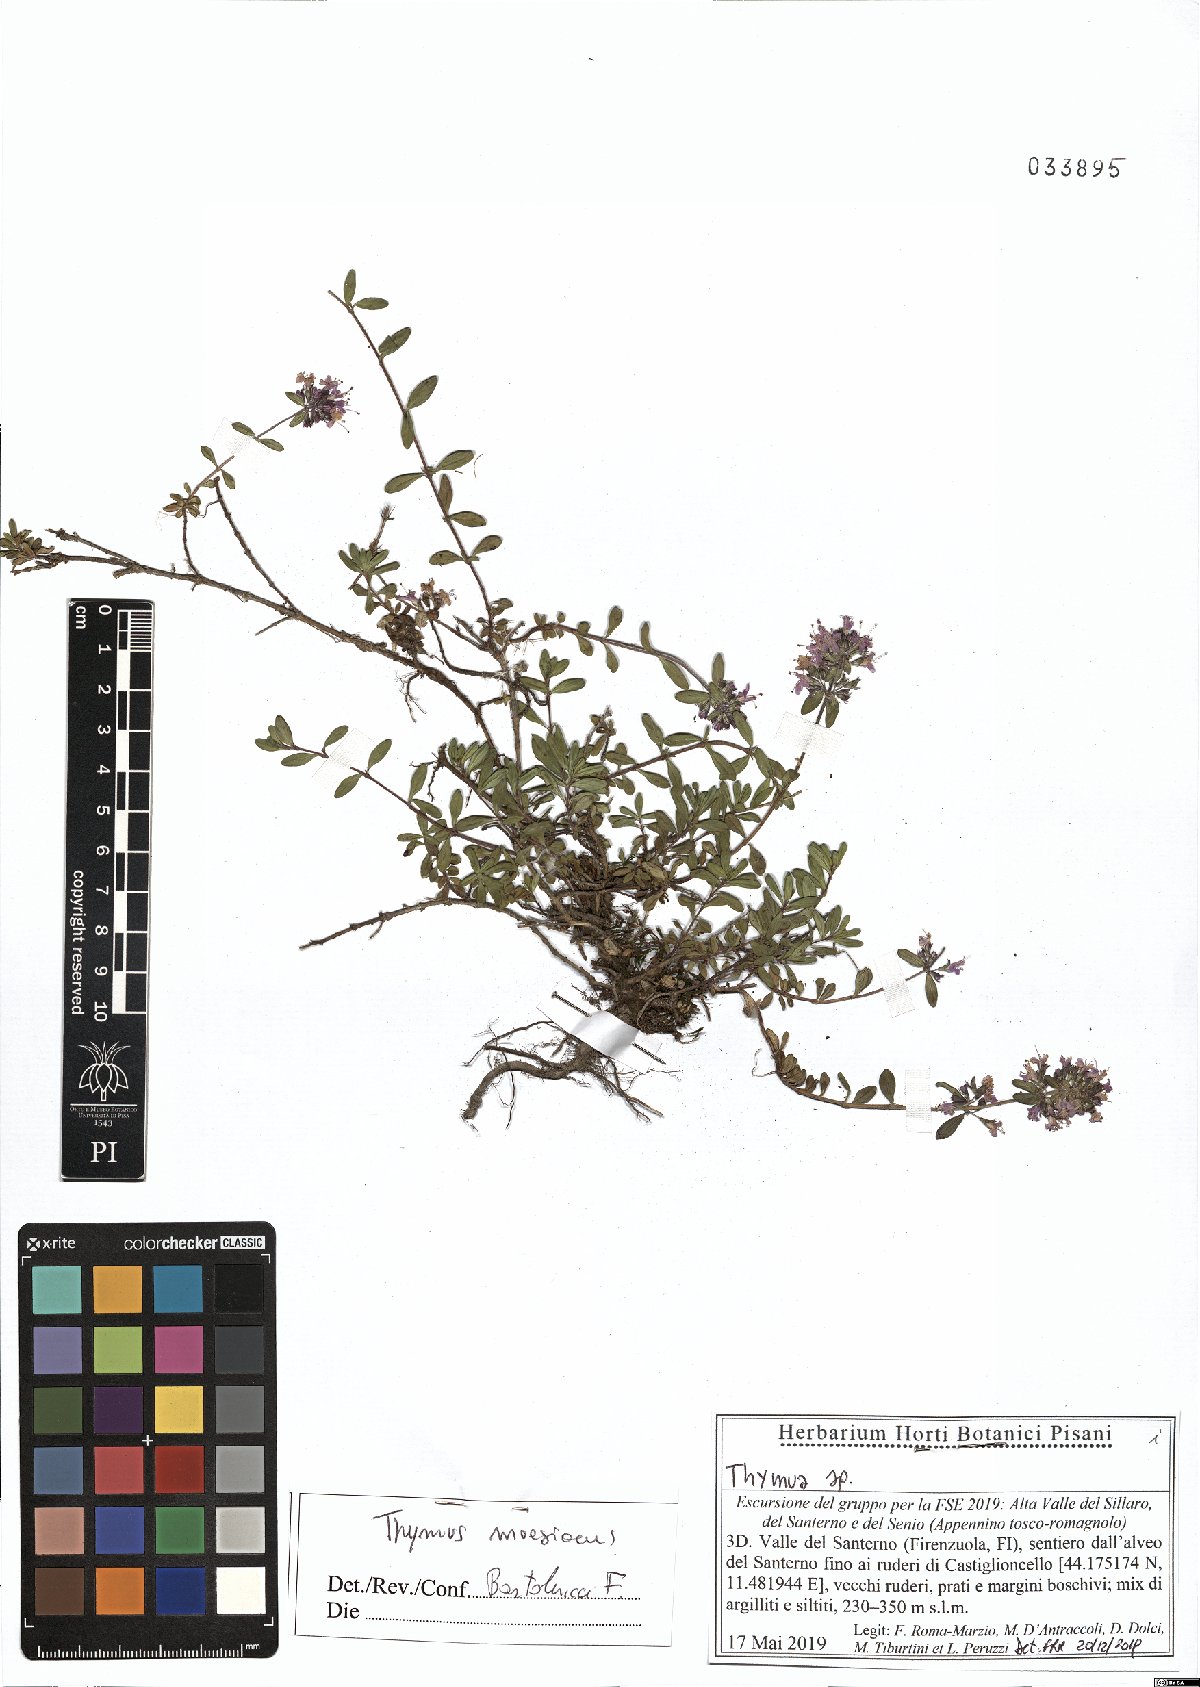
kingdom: Plantae
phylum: Tracheophyta
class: Magnoliopsida
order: Lamiales
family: Lamiaceae
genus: Thymus
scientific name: Thymus longicaulis
